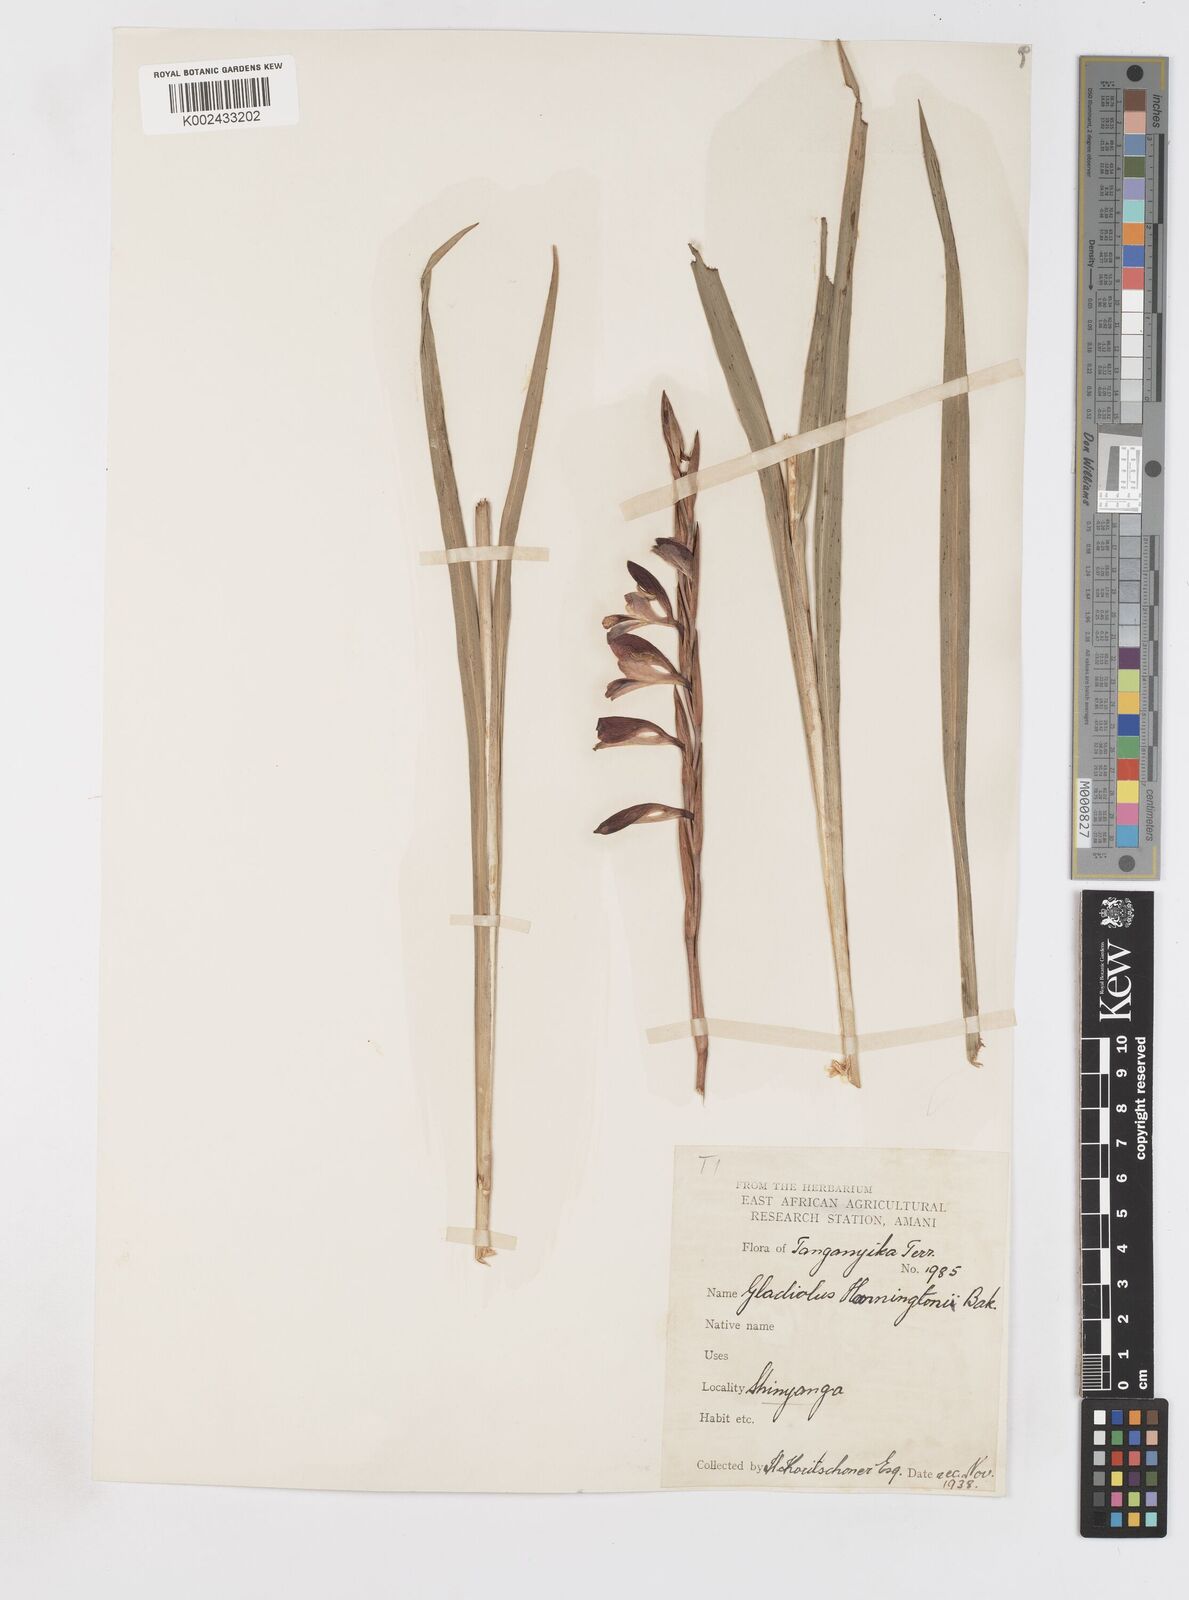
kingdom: Plantae
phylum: Tracheophyta
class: Liliopsida
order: Asparagales
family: Iridaceae
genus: Gladiolus
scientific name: Gladiolus gregarius
